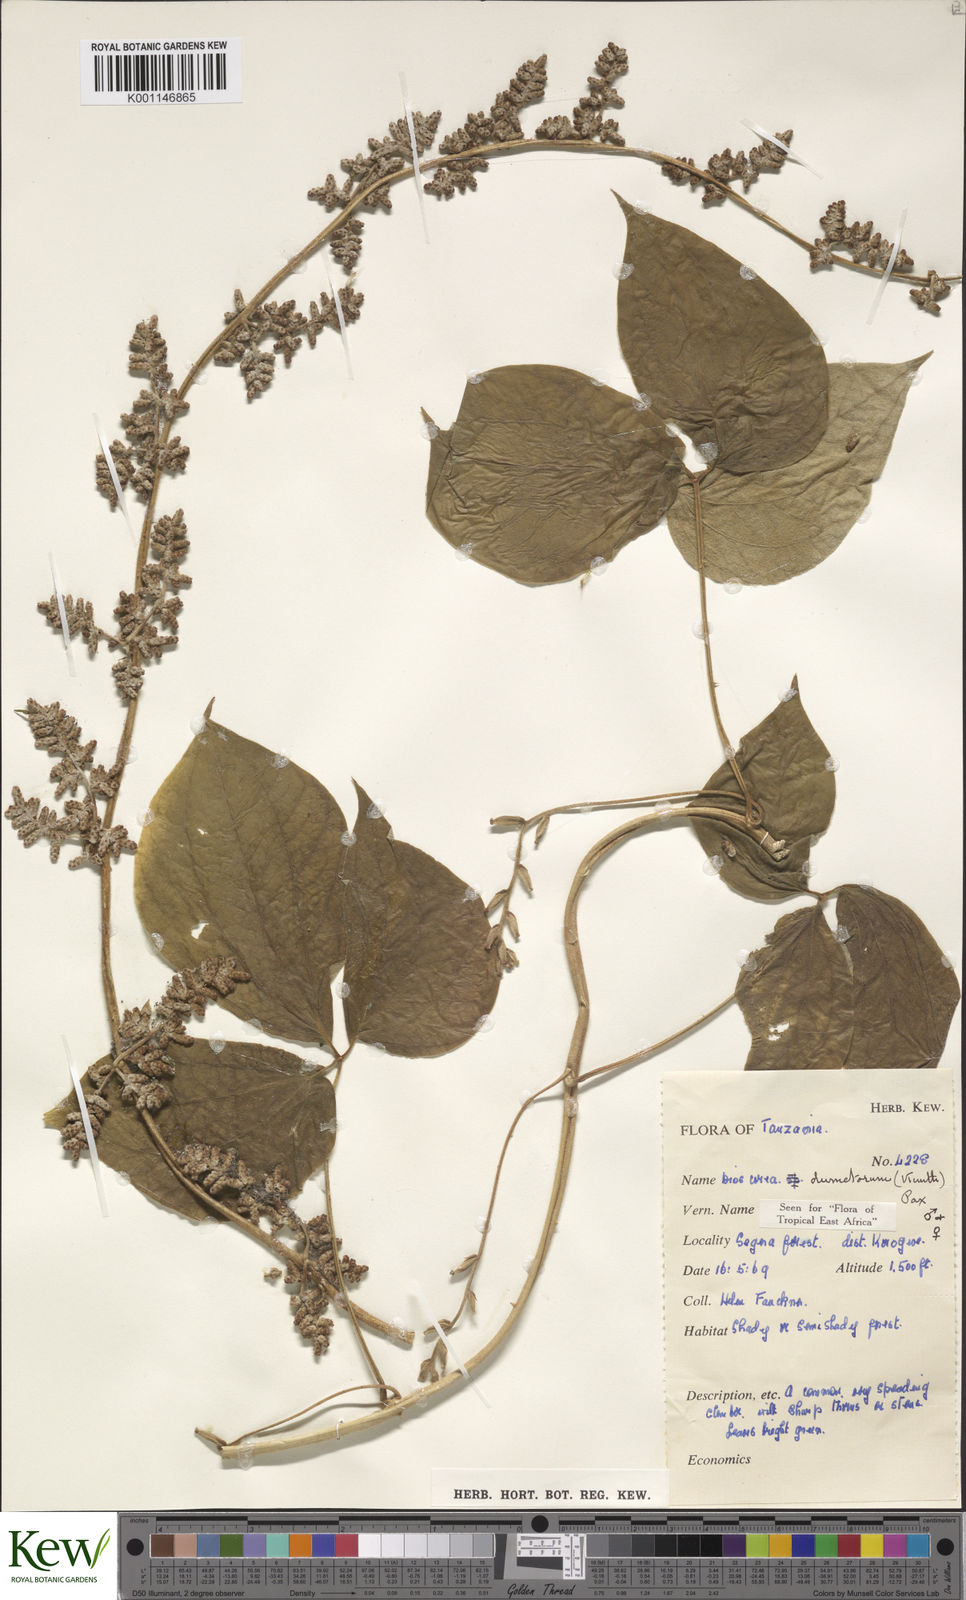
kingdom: Plantae
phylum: Tracheophyta
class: Liliopsida
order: Dioscoreales
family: Dioscoreaceae
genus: Dioscorea
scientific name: Dioscorea dumetorum
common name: African bitter yam
